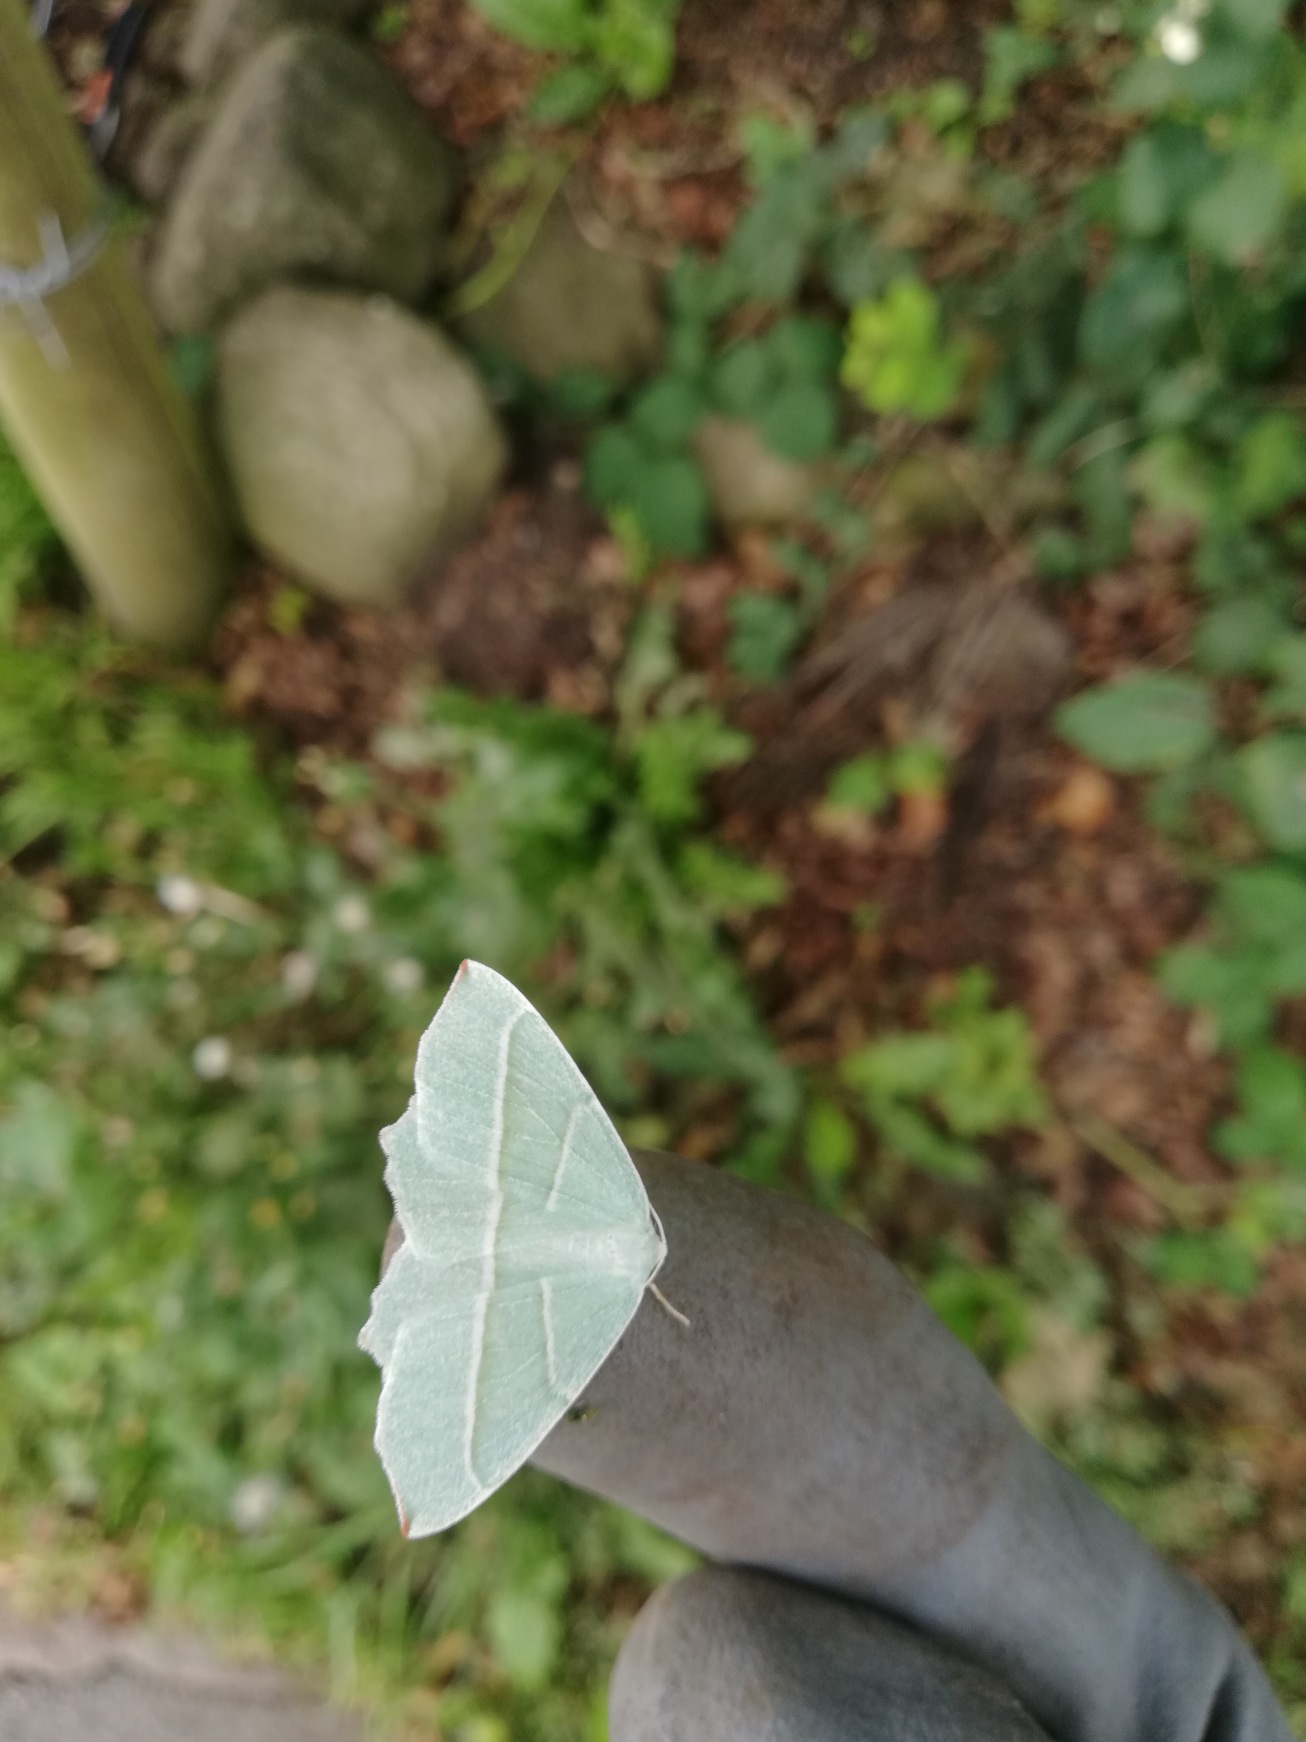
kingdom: Animalia
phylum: Arthropoda
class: Insecta
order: Lepidoptera
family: Geometridae
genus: Campaea
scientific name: Campaea margaritaria
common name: Perlemåler
